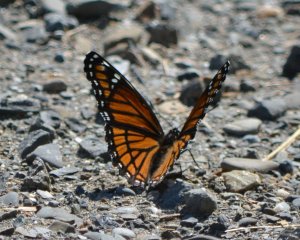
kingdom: Animalia
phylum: Arthropoda
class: Insecta
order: Lepidoptera
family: Nymphalidae
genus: Limenitis
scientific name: Limenitis archippus
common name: Viceroy
